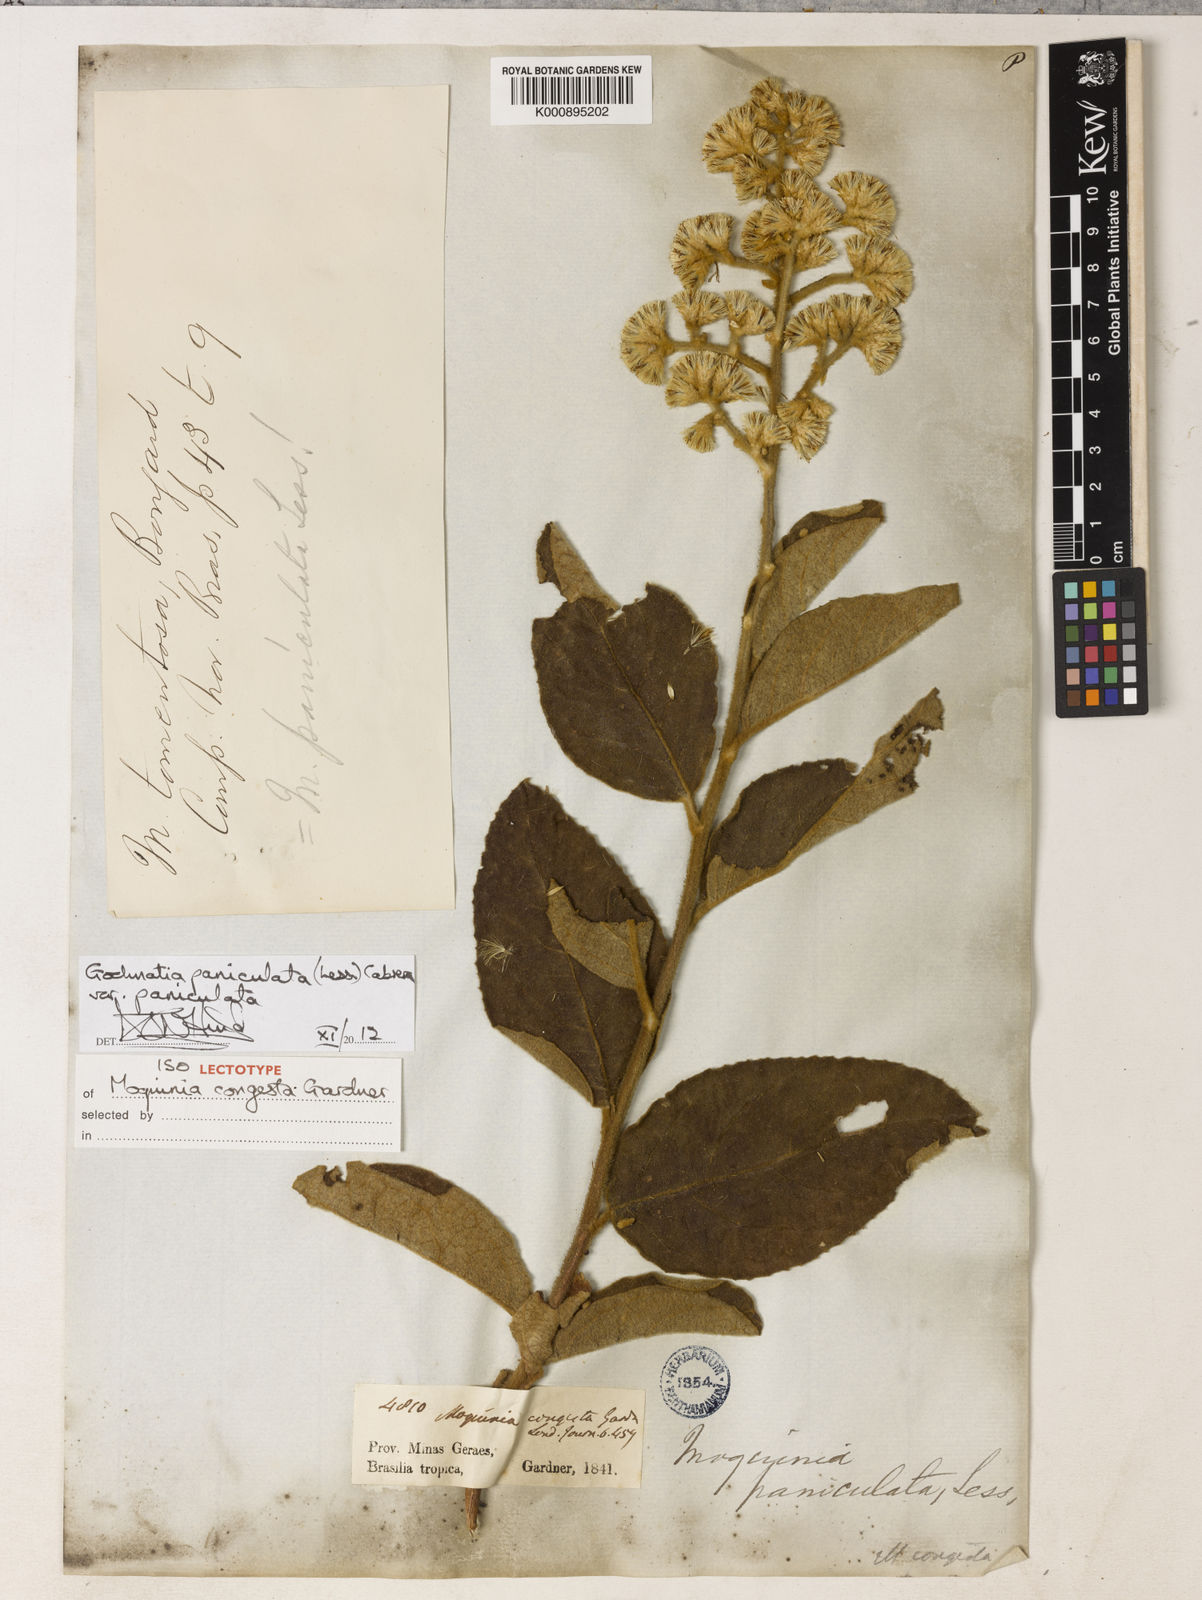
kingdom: Plantae
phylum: Tracheophyta
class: Magnoliopsida
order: Asterales
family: Asteraceae
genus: Moquiniastrum
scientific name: Moquiniastrum paniculatum
